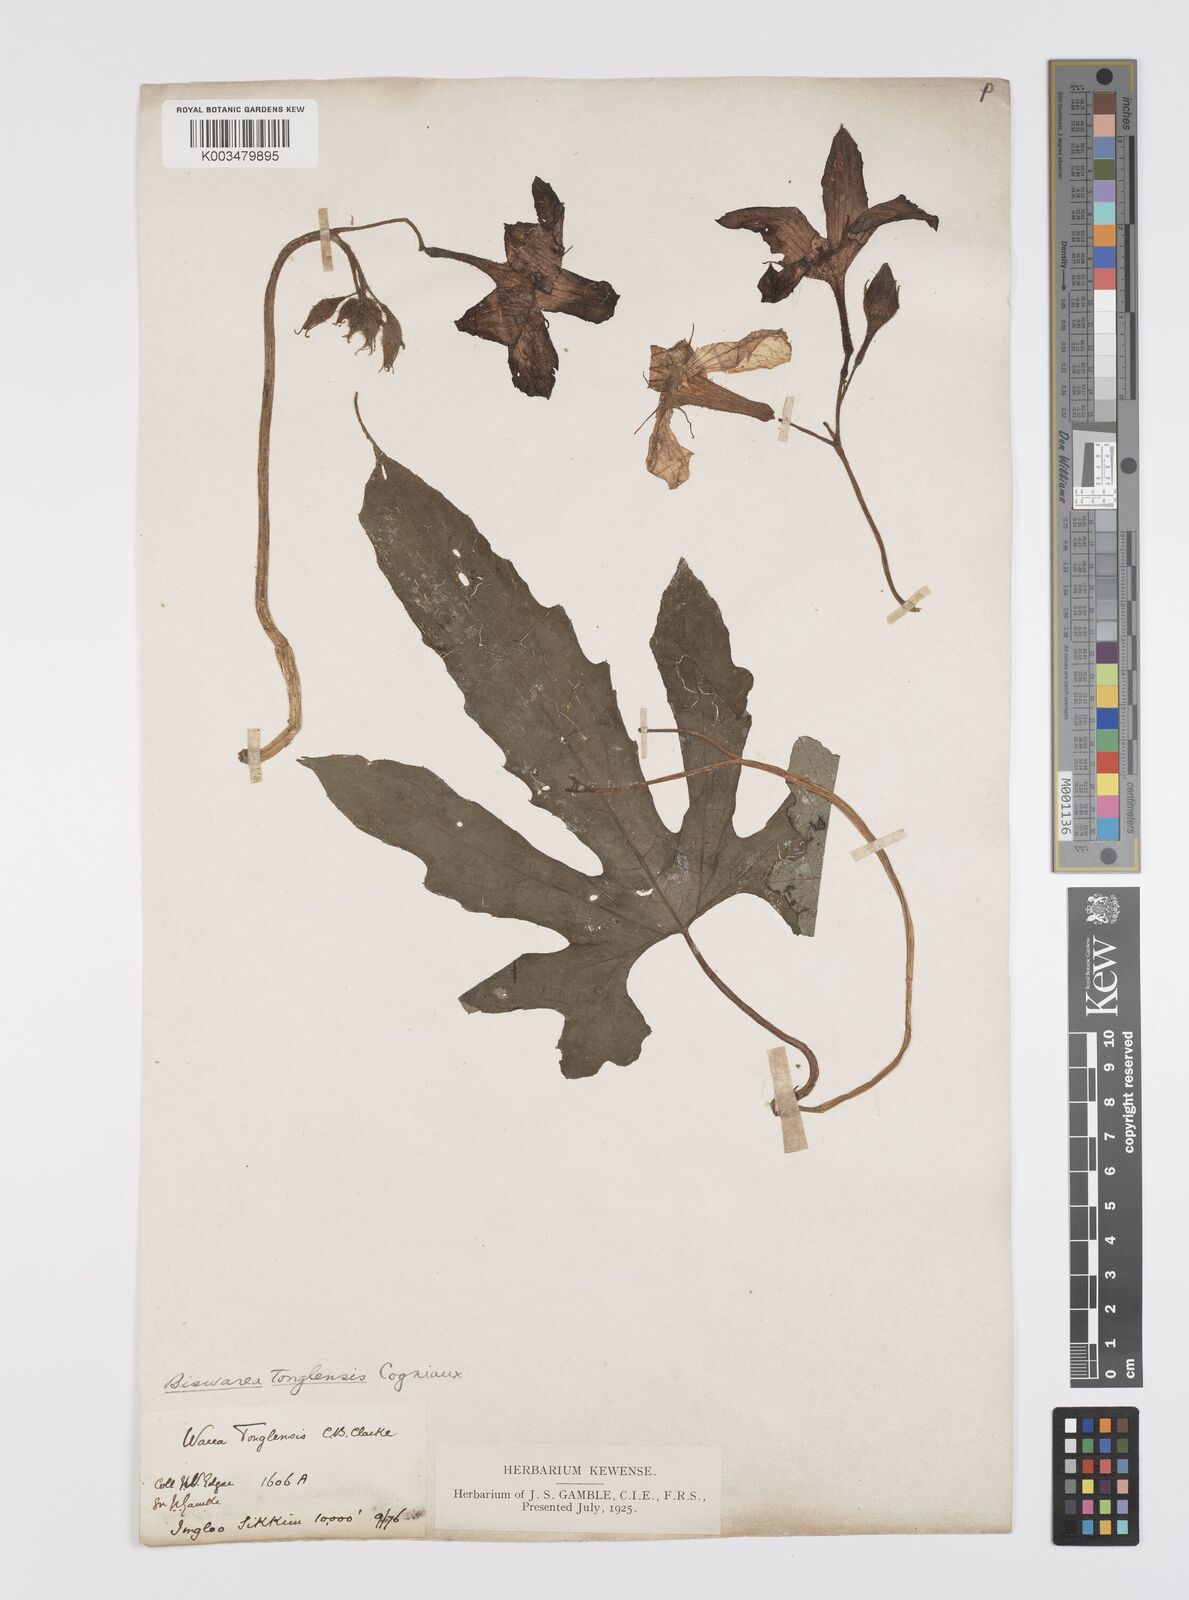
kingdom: Plantae
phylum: Tracheophyta
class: Magnoliopsida
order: Cucurbitales
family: Cucurbitaceae
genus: Benincasa
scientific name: Benincasa
